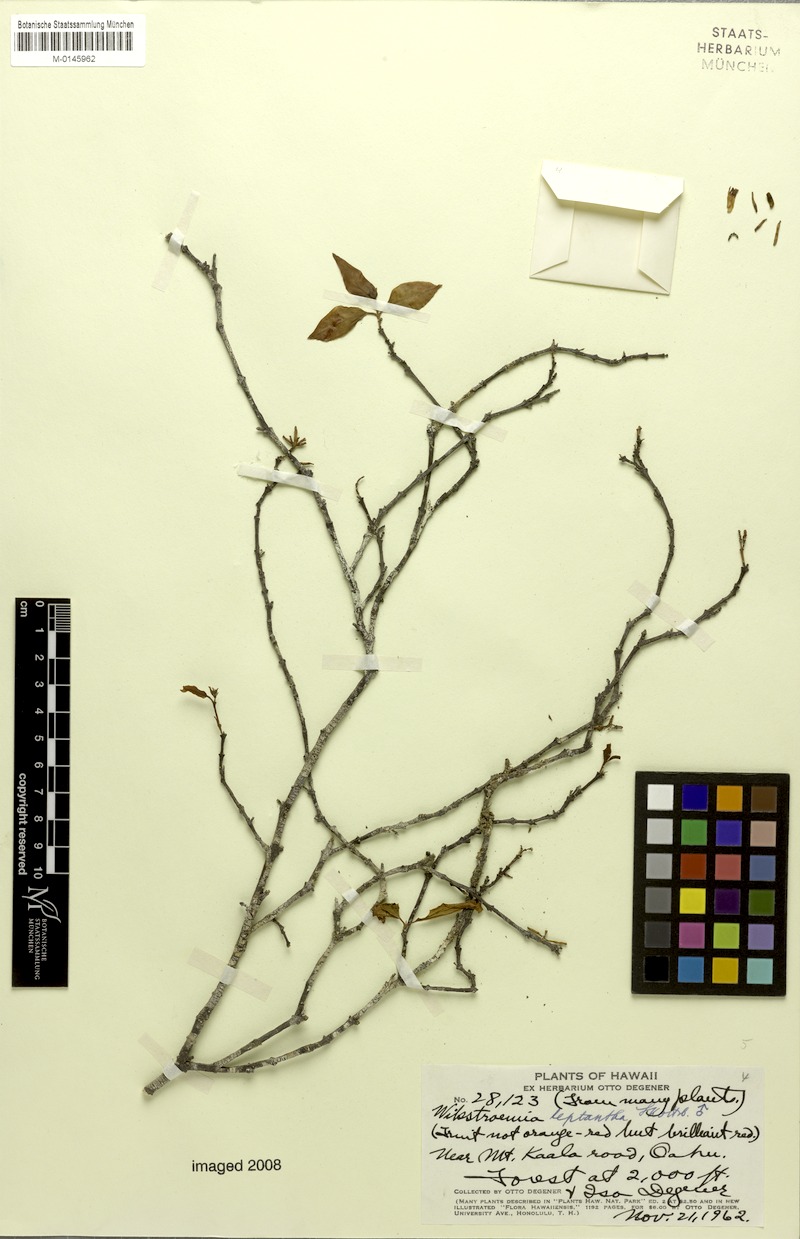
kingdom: Plantae
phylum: Tracheophyta
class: Magnoliopsida
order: Malvales
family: Thymelaeaceae
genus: Wikstroemia
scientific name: Wikstroemia oahuensis
